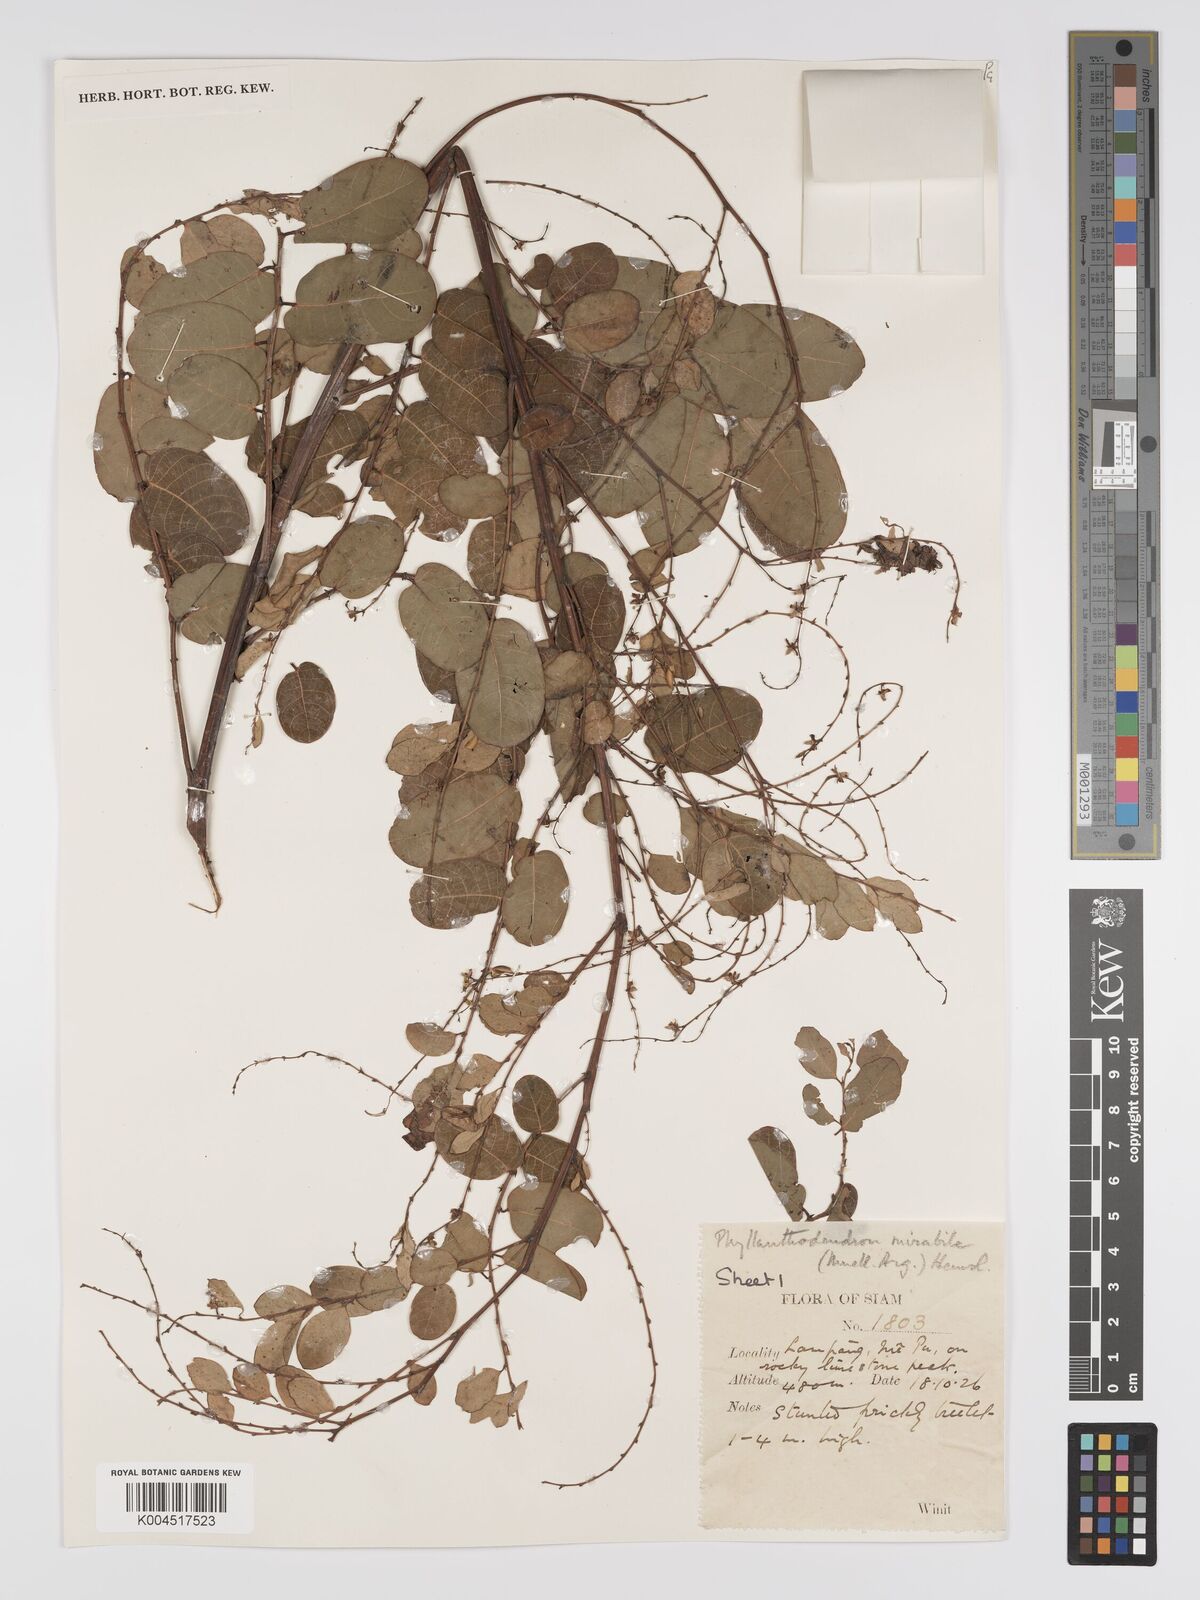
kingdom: Plantae
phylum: Tracheophyta
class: Magnoliopsida
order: Malpighiales
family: Phyllanthaceae
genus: Phyllanthus
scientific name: Phyllanthus mirabilis
